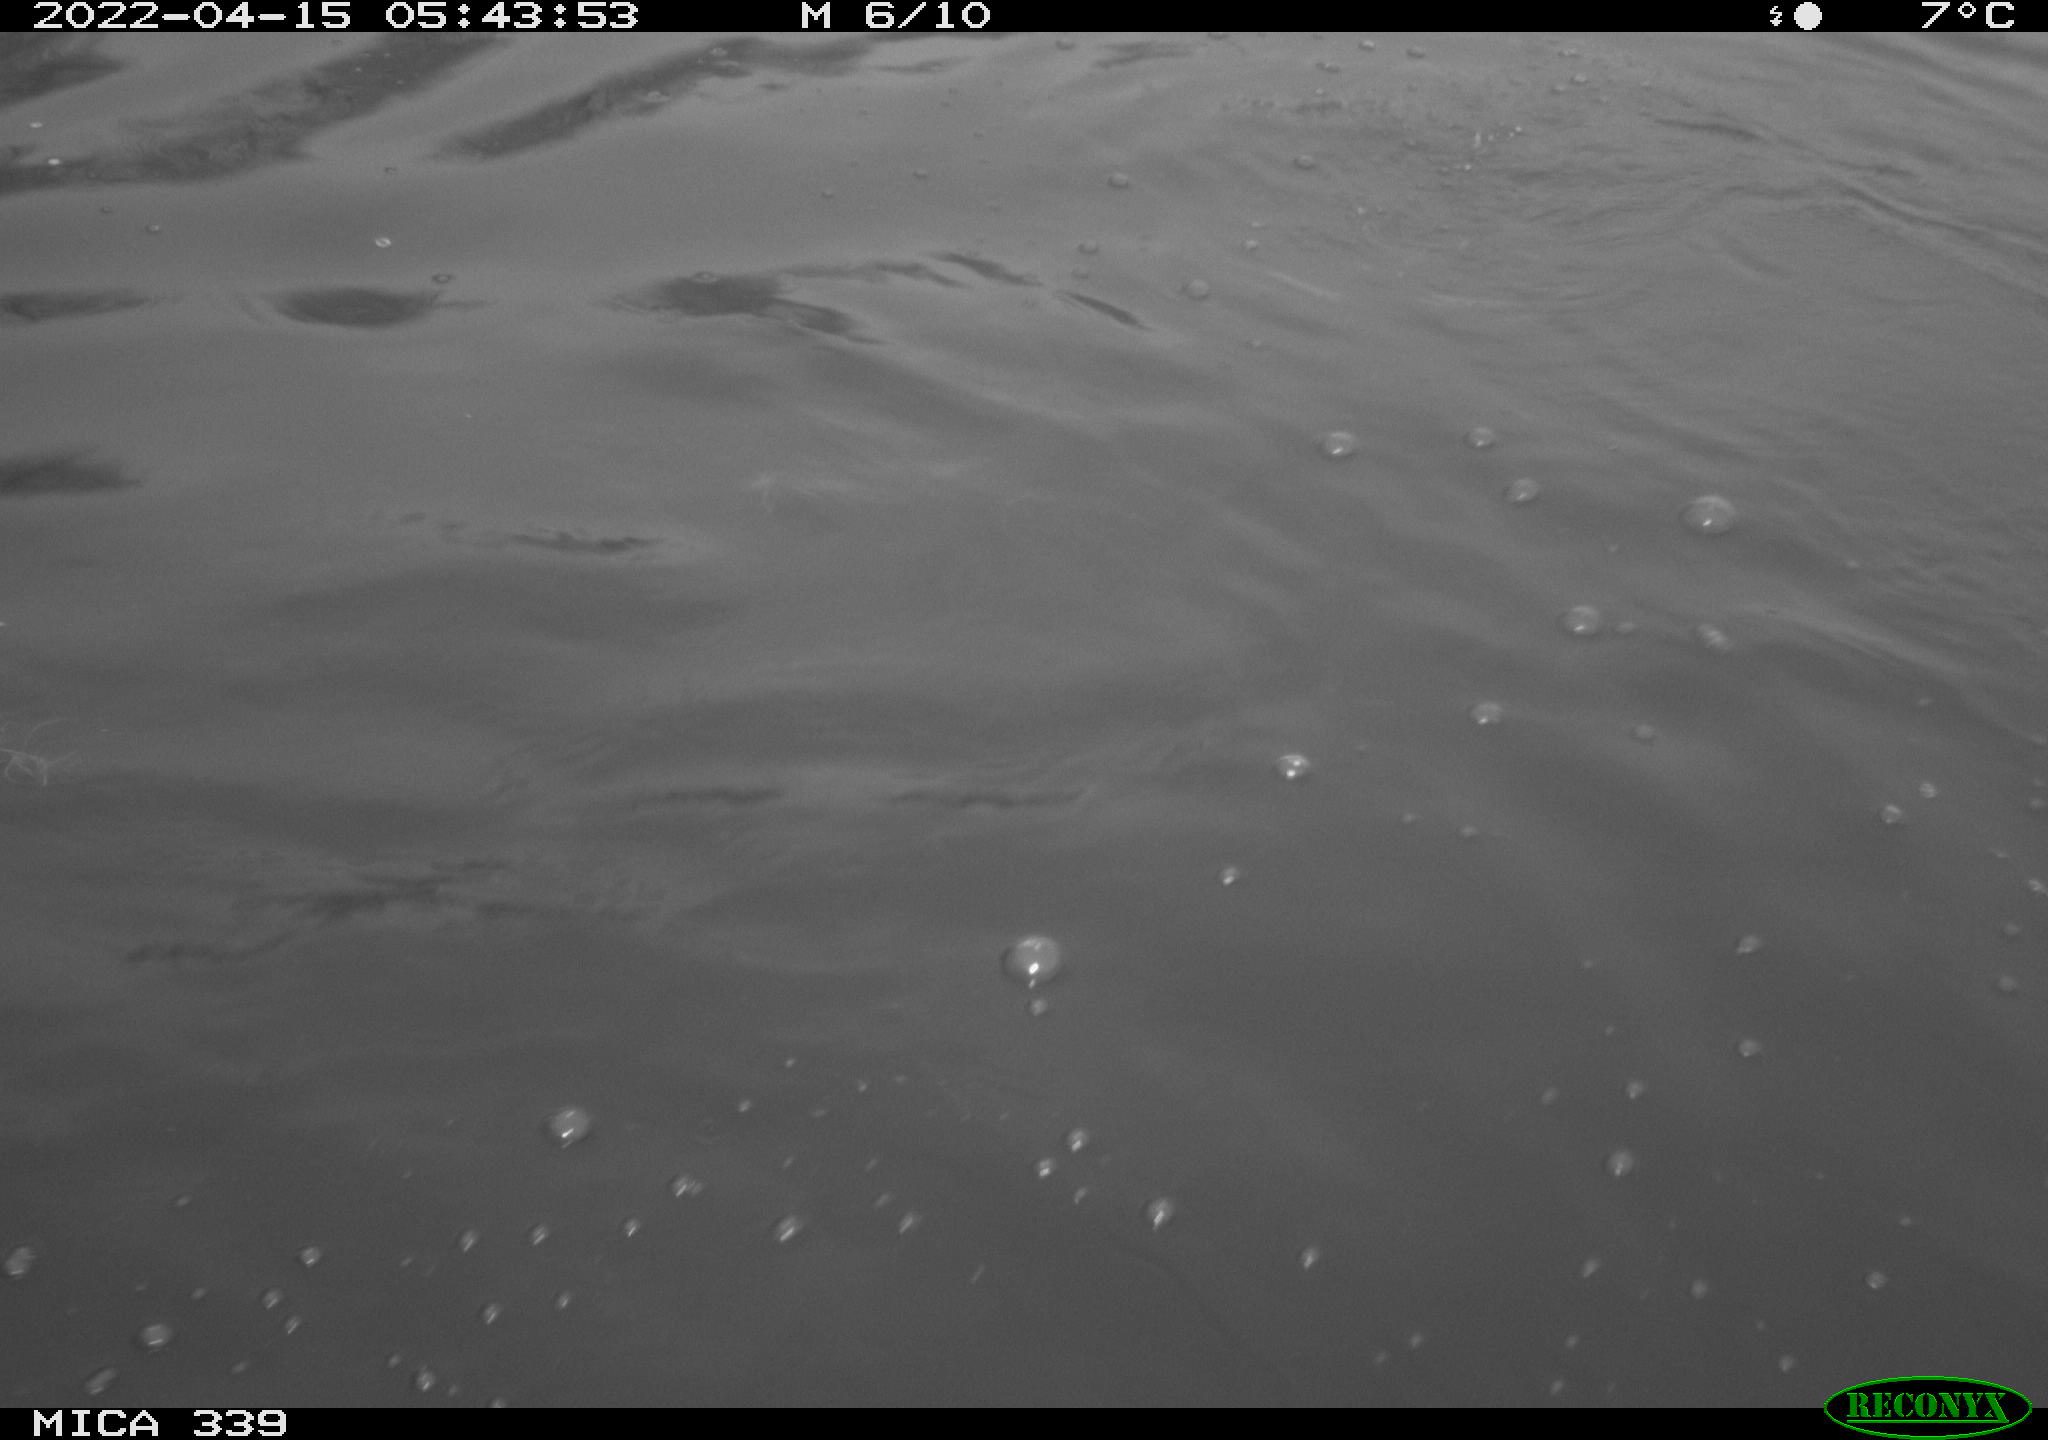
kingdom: Animalia
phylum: Chordata
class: Aves
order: Suliformes
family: Phalacrocoracidae
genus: Phalacrocorax
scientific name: Phalacrocorax carbo
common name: Great cormorant
